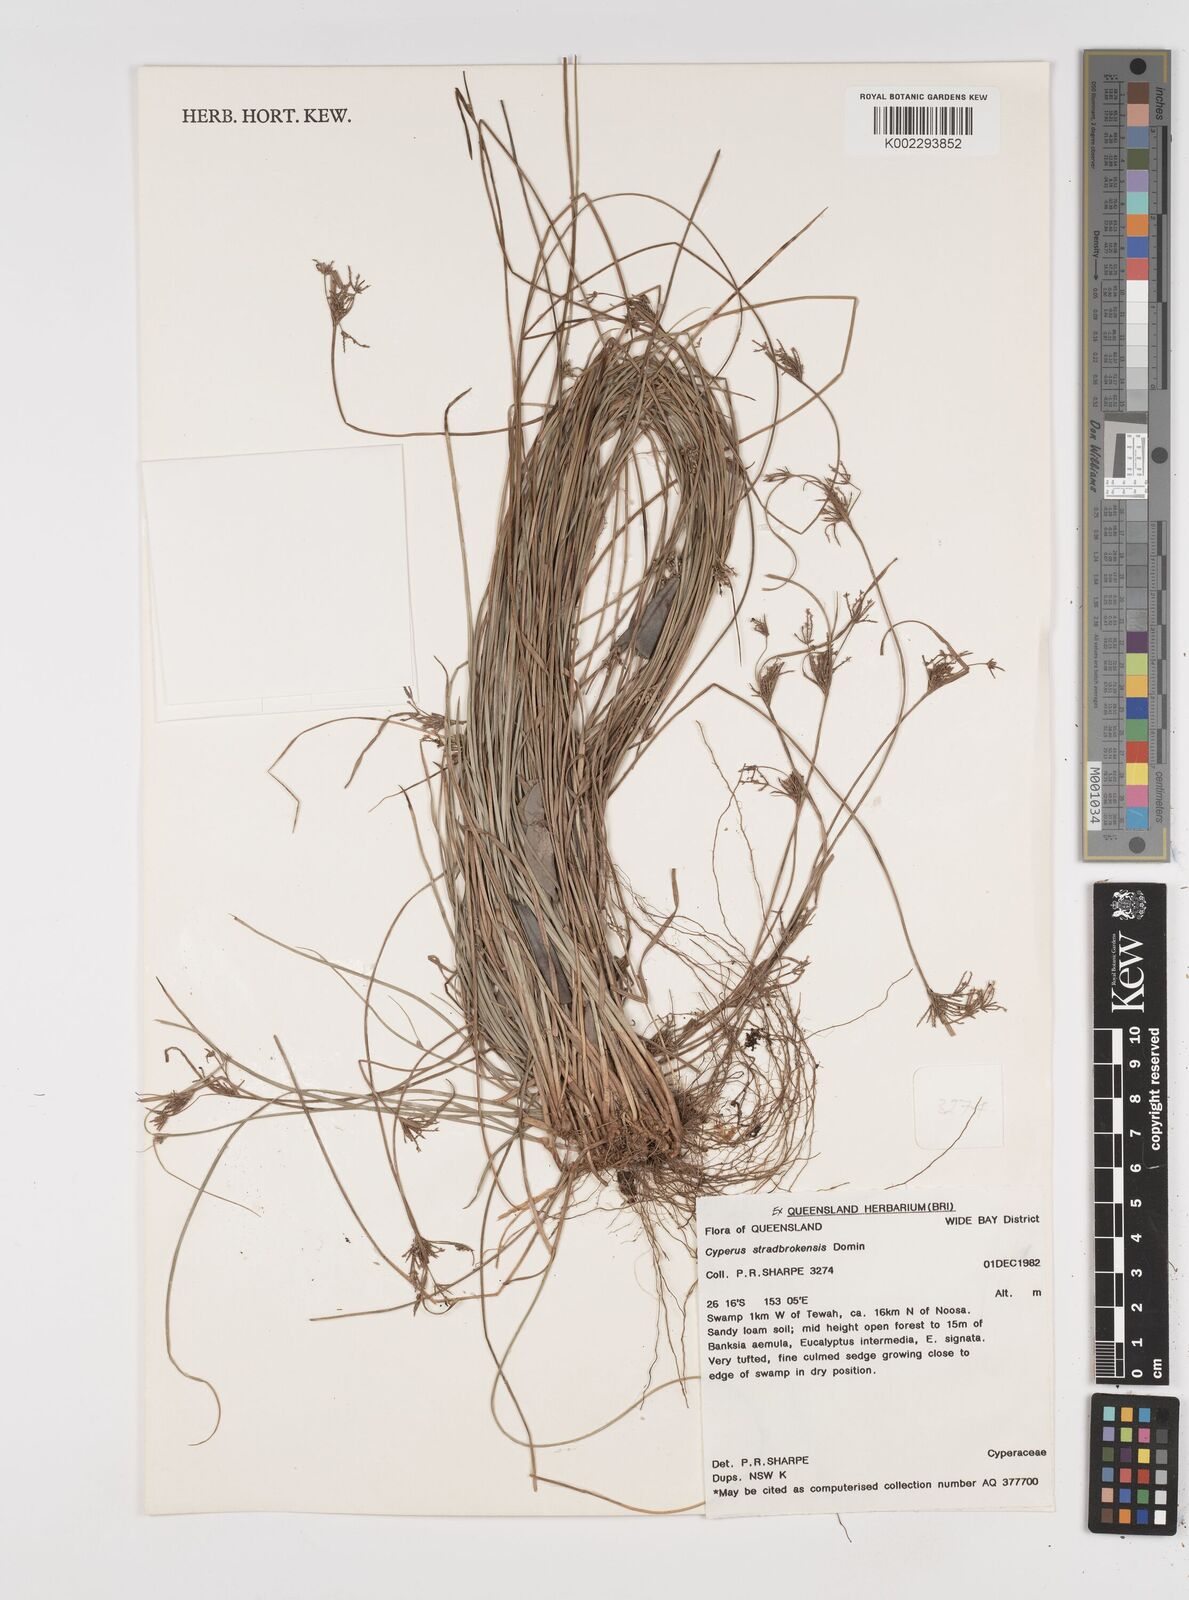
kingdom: Plantae
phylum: Tracheophyta
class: Liliopsida
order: Poales
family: Cyperaceae
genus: Cyperus
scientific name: Cyperus stradbrokensis
